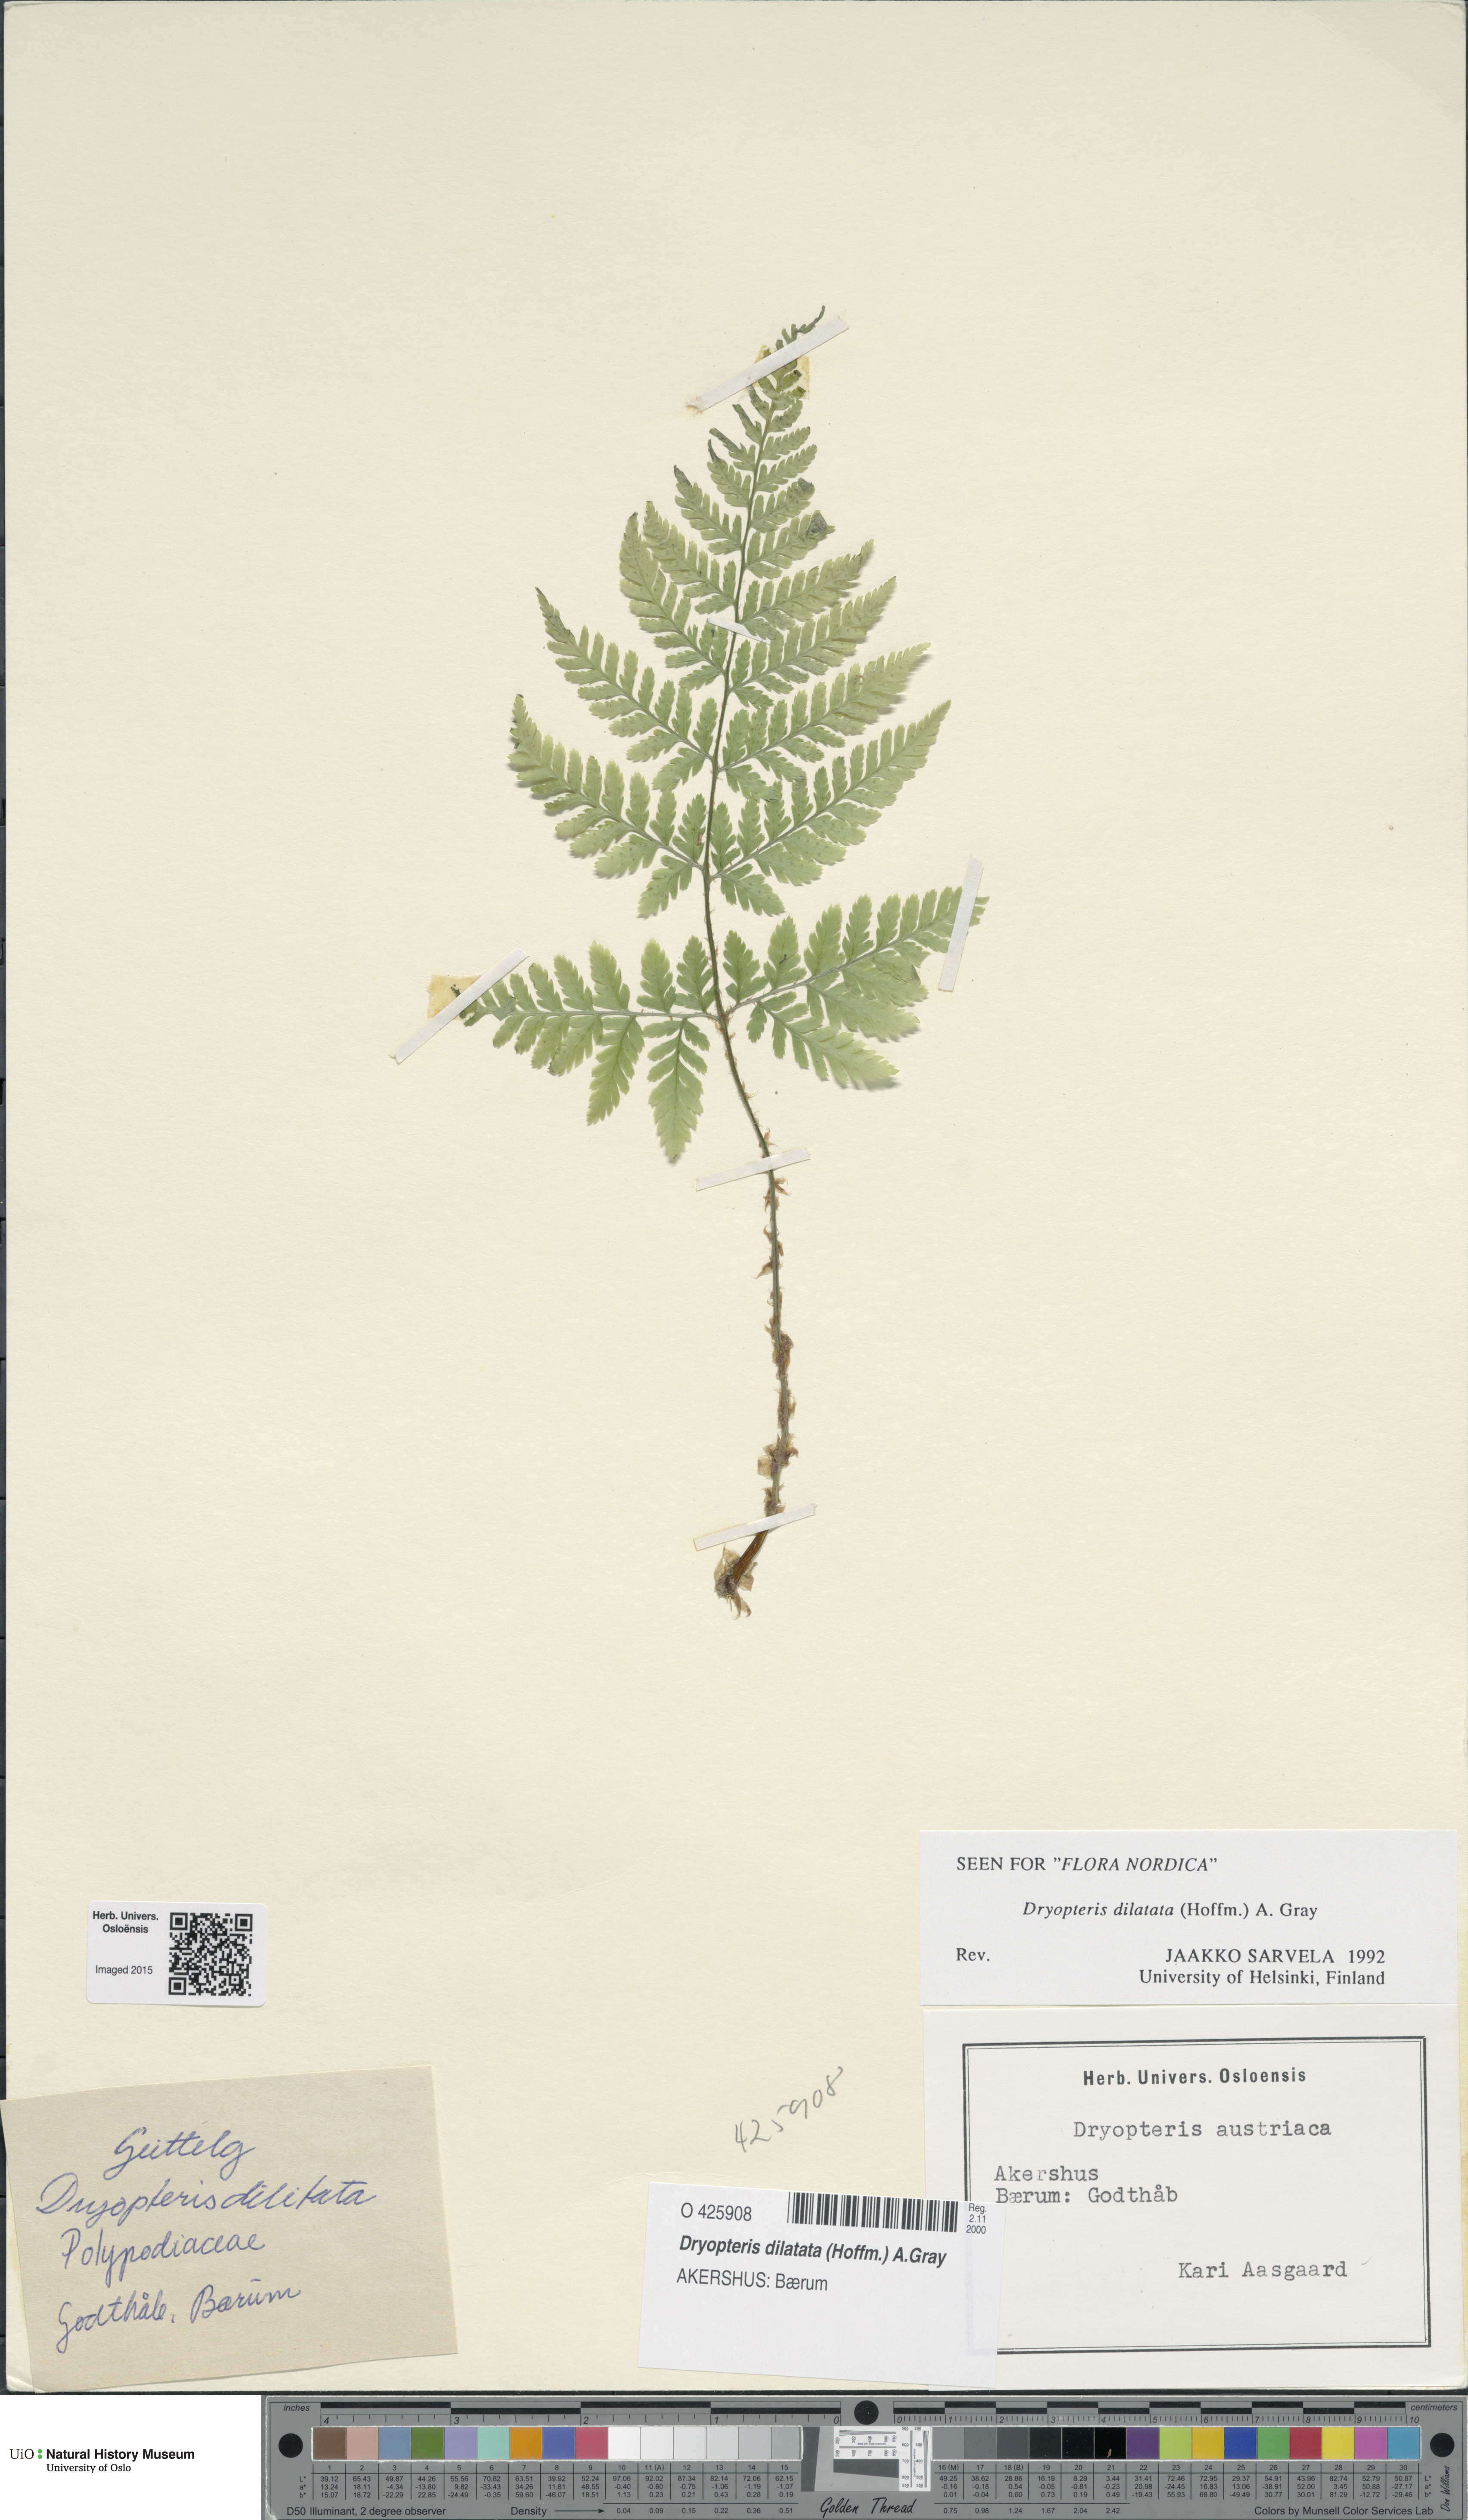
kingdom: Plantae
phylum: Tracheophyta
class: Polypodiopsida
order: Polypodiales
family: Dryopteridaceae
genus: Dryopteris
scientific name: Dryopteris dilatata
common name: Broad buckler-fern
